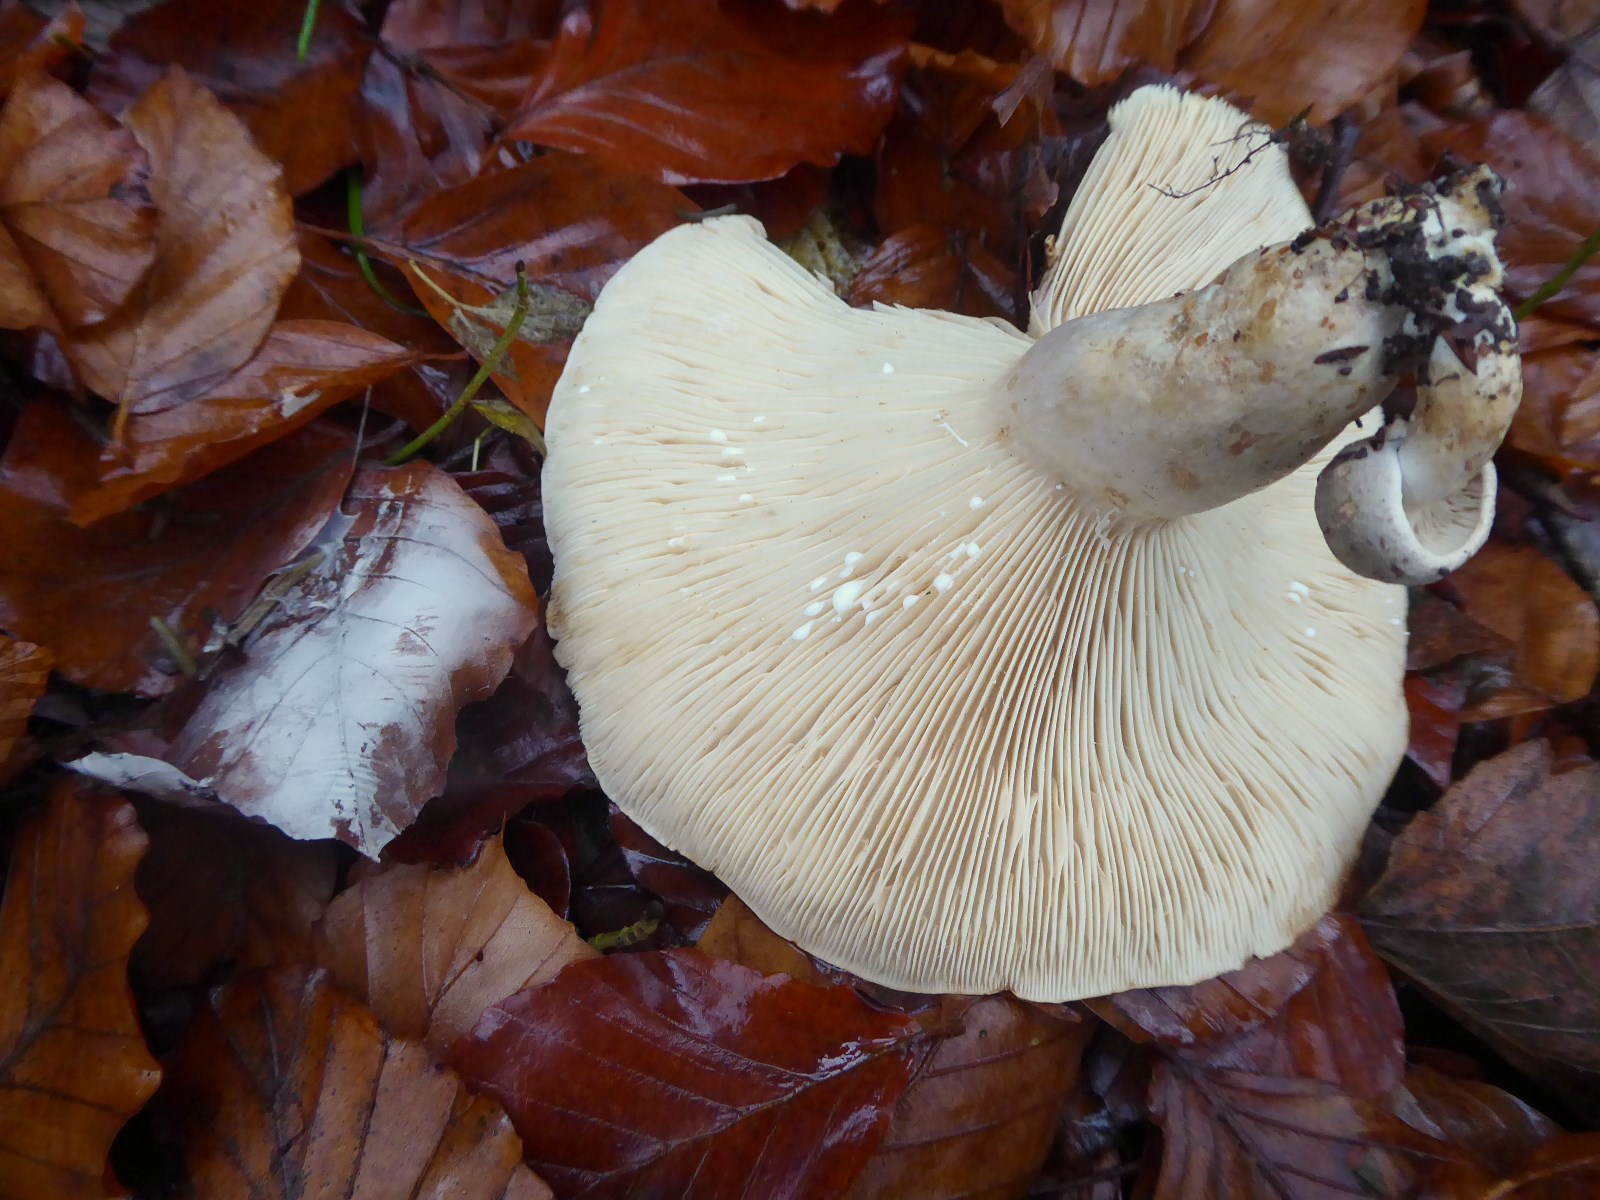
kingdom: Fungi
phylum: Basidiomycota
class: Agaricomycetes
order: Russulales
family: Russulaceae
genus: Lactarius
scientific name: Lactarius fluens
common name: lysrandet mælkehat
